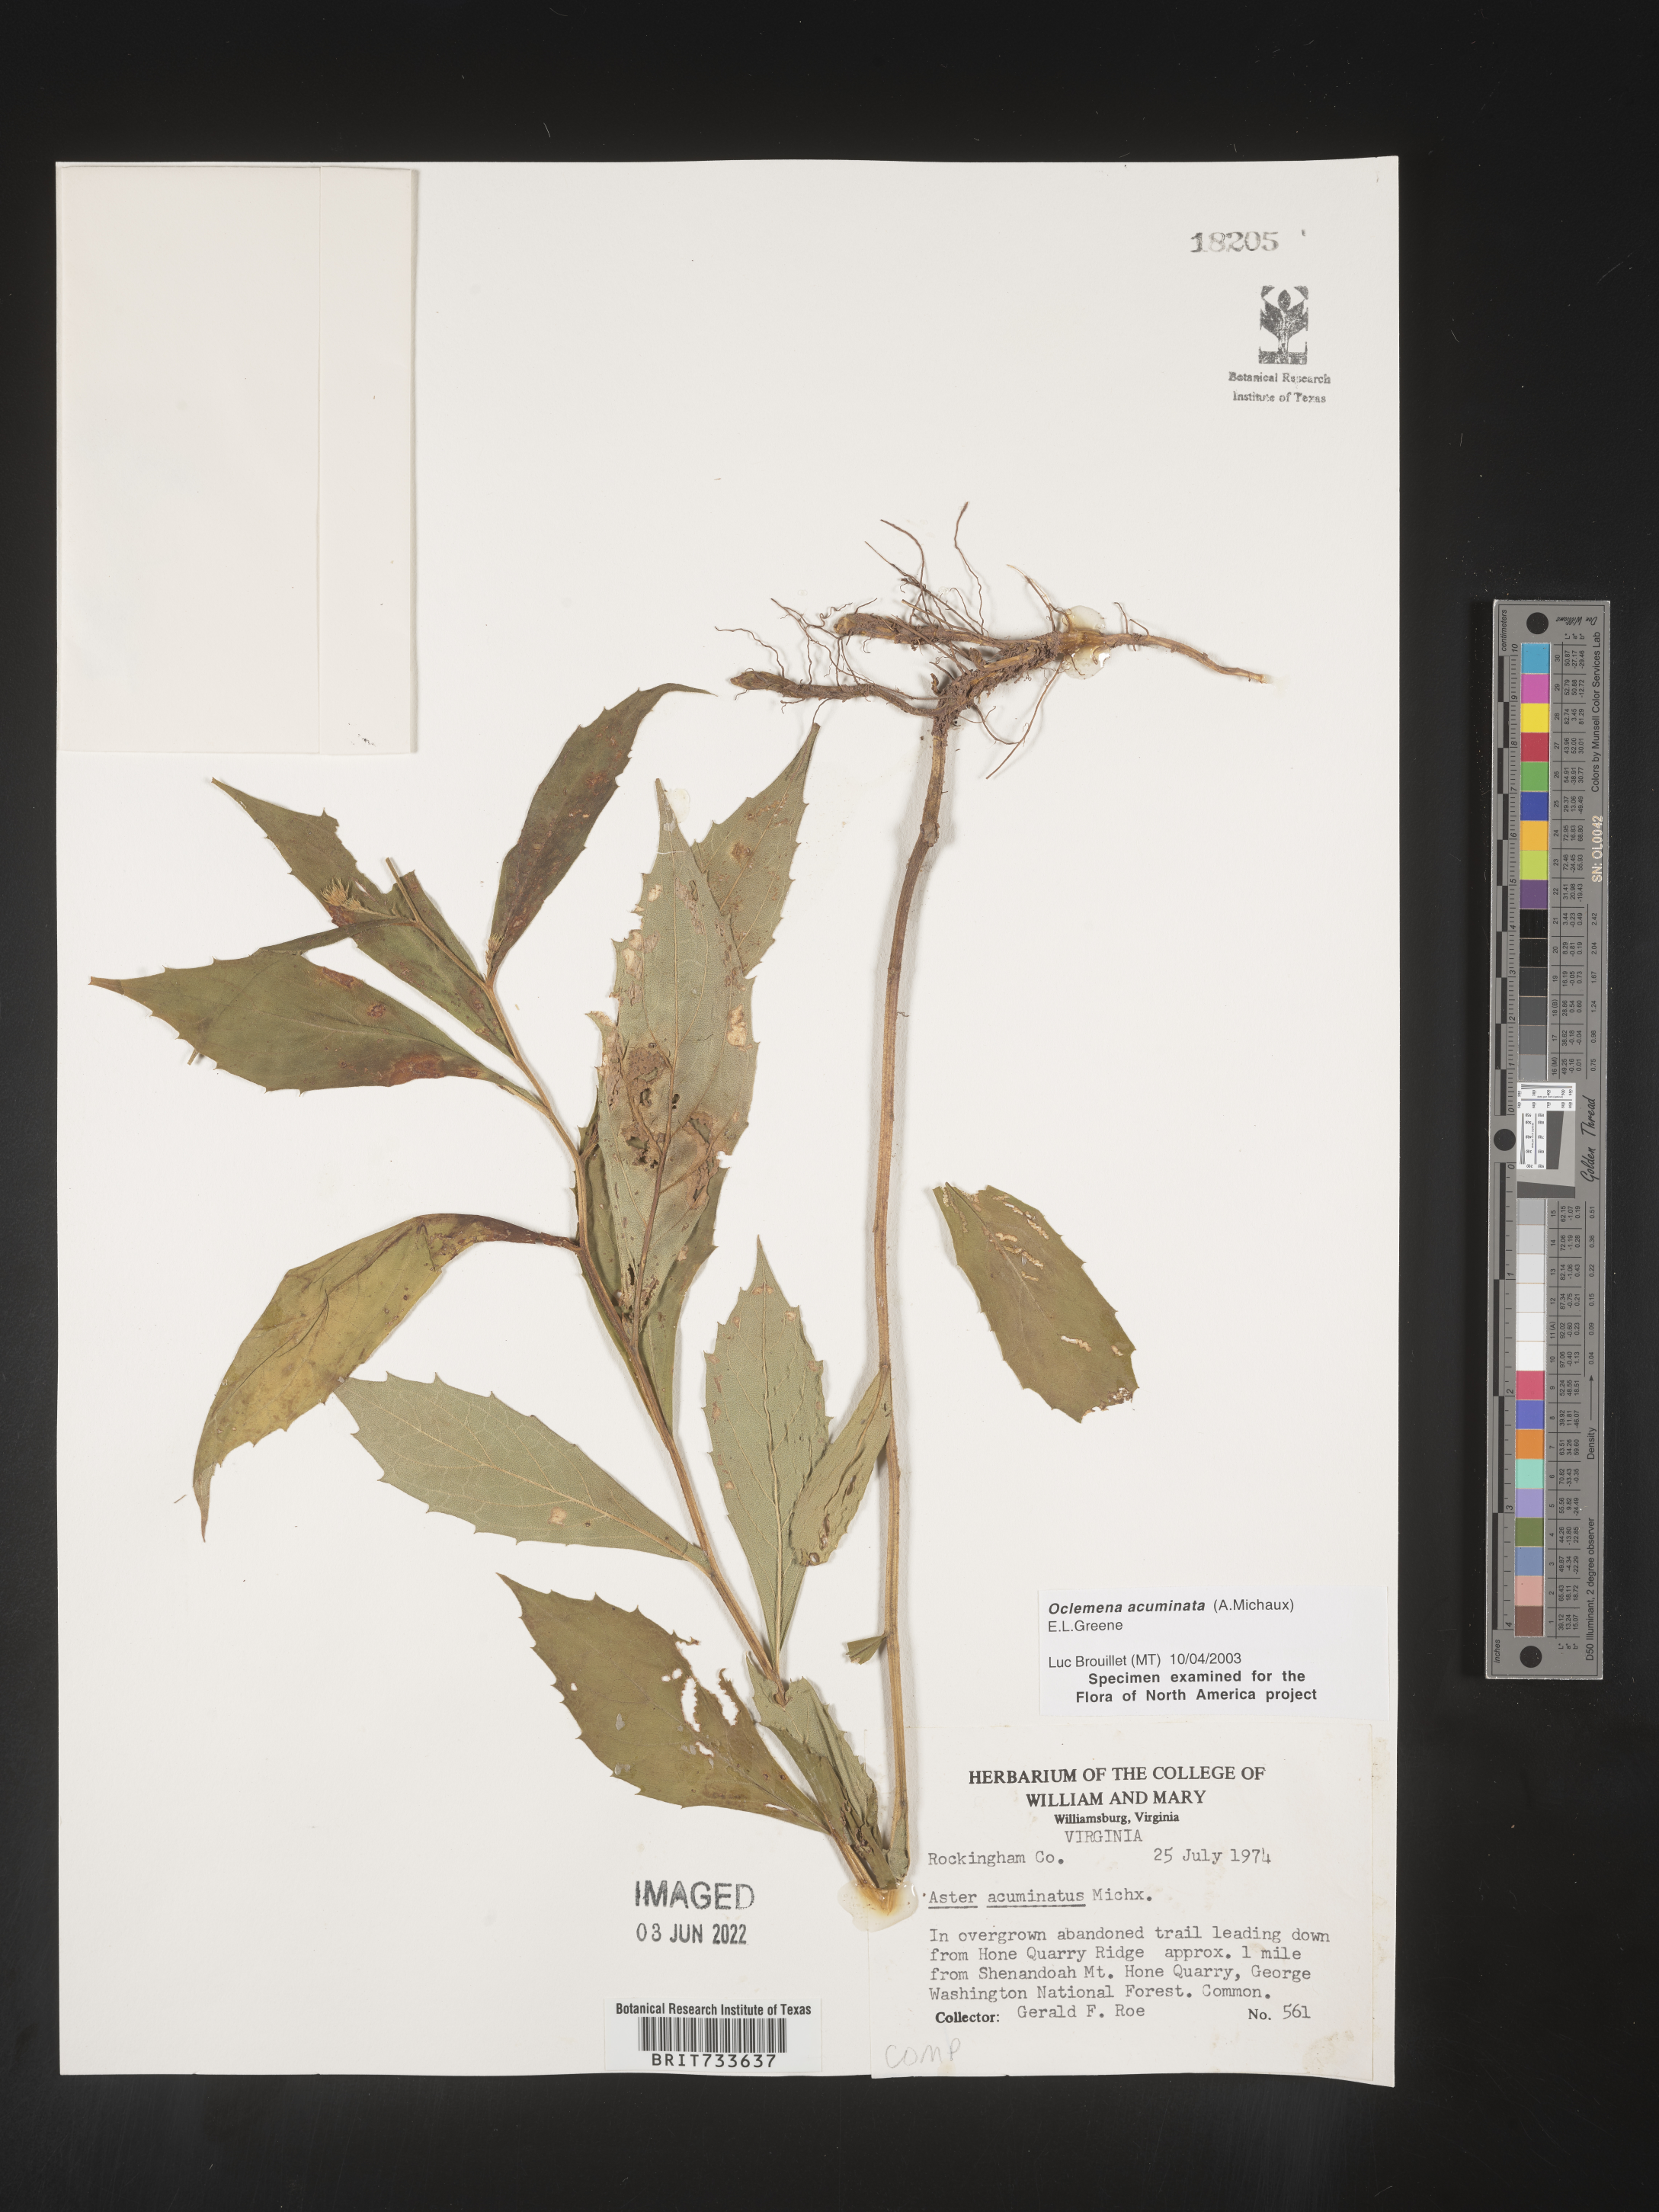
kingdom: Plantae
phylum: Tracheophyta
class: Magnoliopsida
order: Asterales
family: Asteraceae
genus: Oclemena
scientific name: Oclemena acuminata
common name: Mountain aster
